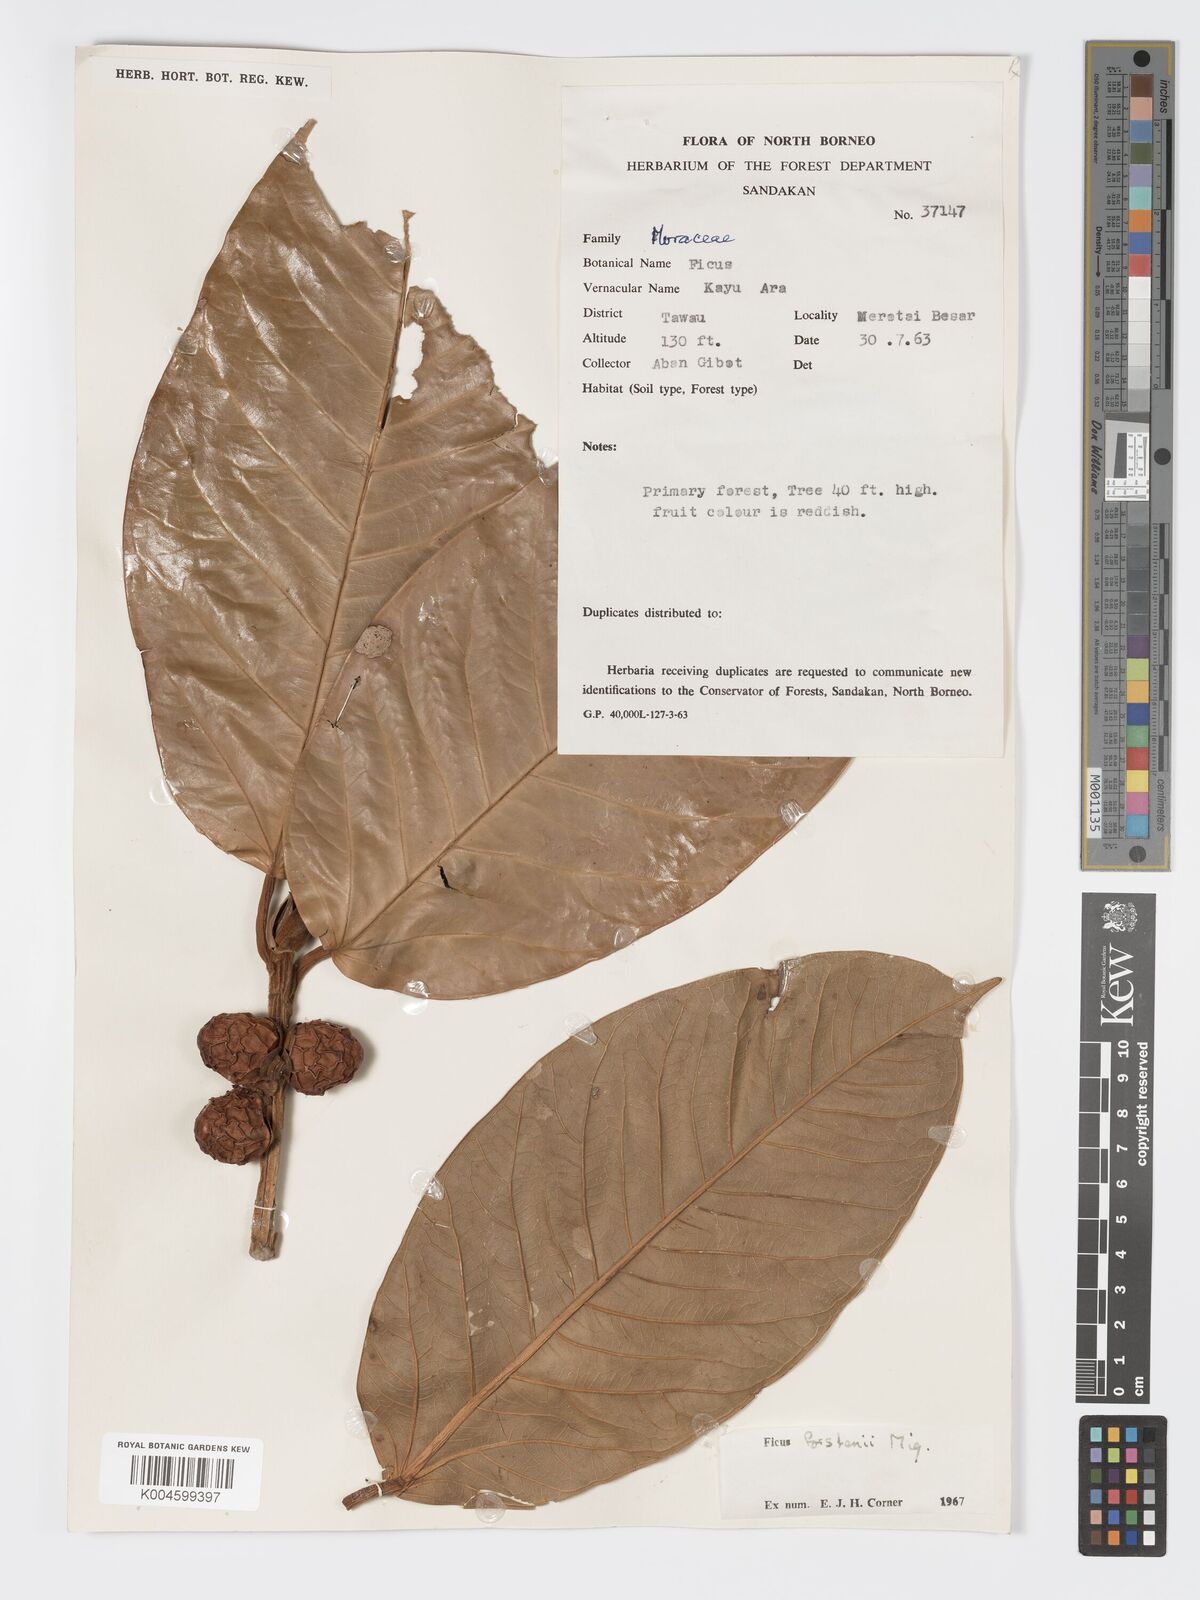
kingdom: Plantae
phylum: Tracheophyta
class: Magnoliopsida
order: Rosales
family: Moraceae
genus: Ficus
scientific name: Ficus forstenii
